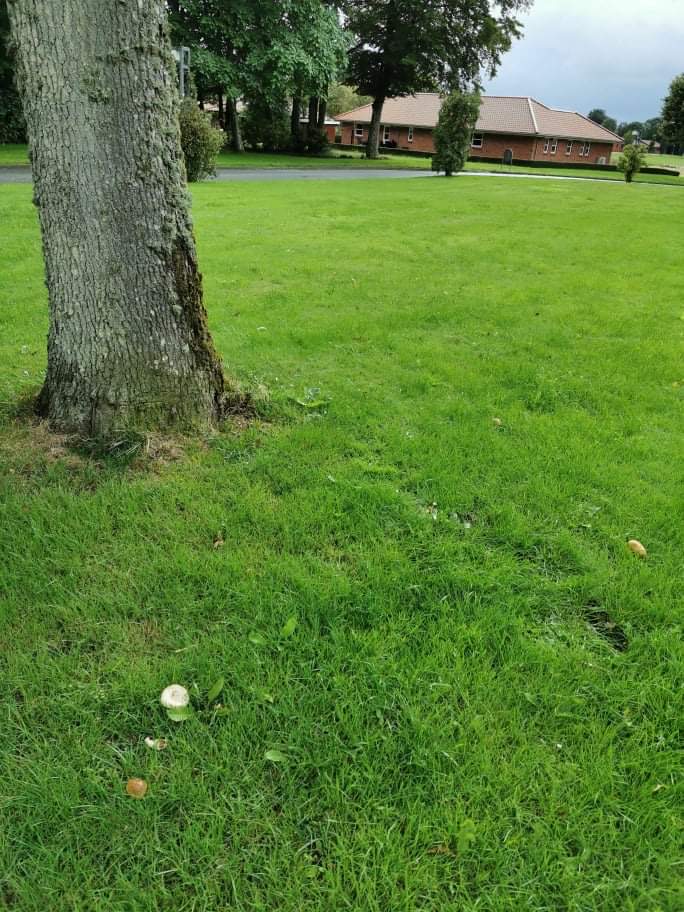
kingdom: Fungi
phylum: Basidiomycota
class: Agaricomycetes
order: Boletales
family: Boletaceae
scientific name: Boletaceae
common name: rørhatfamilien
